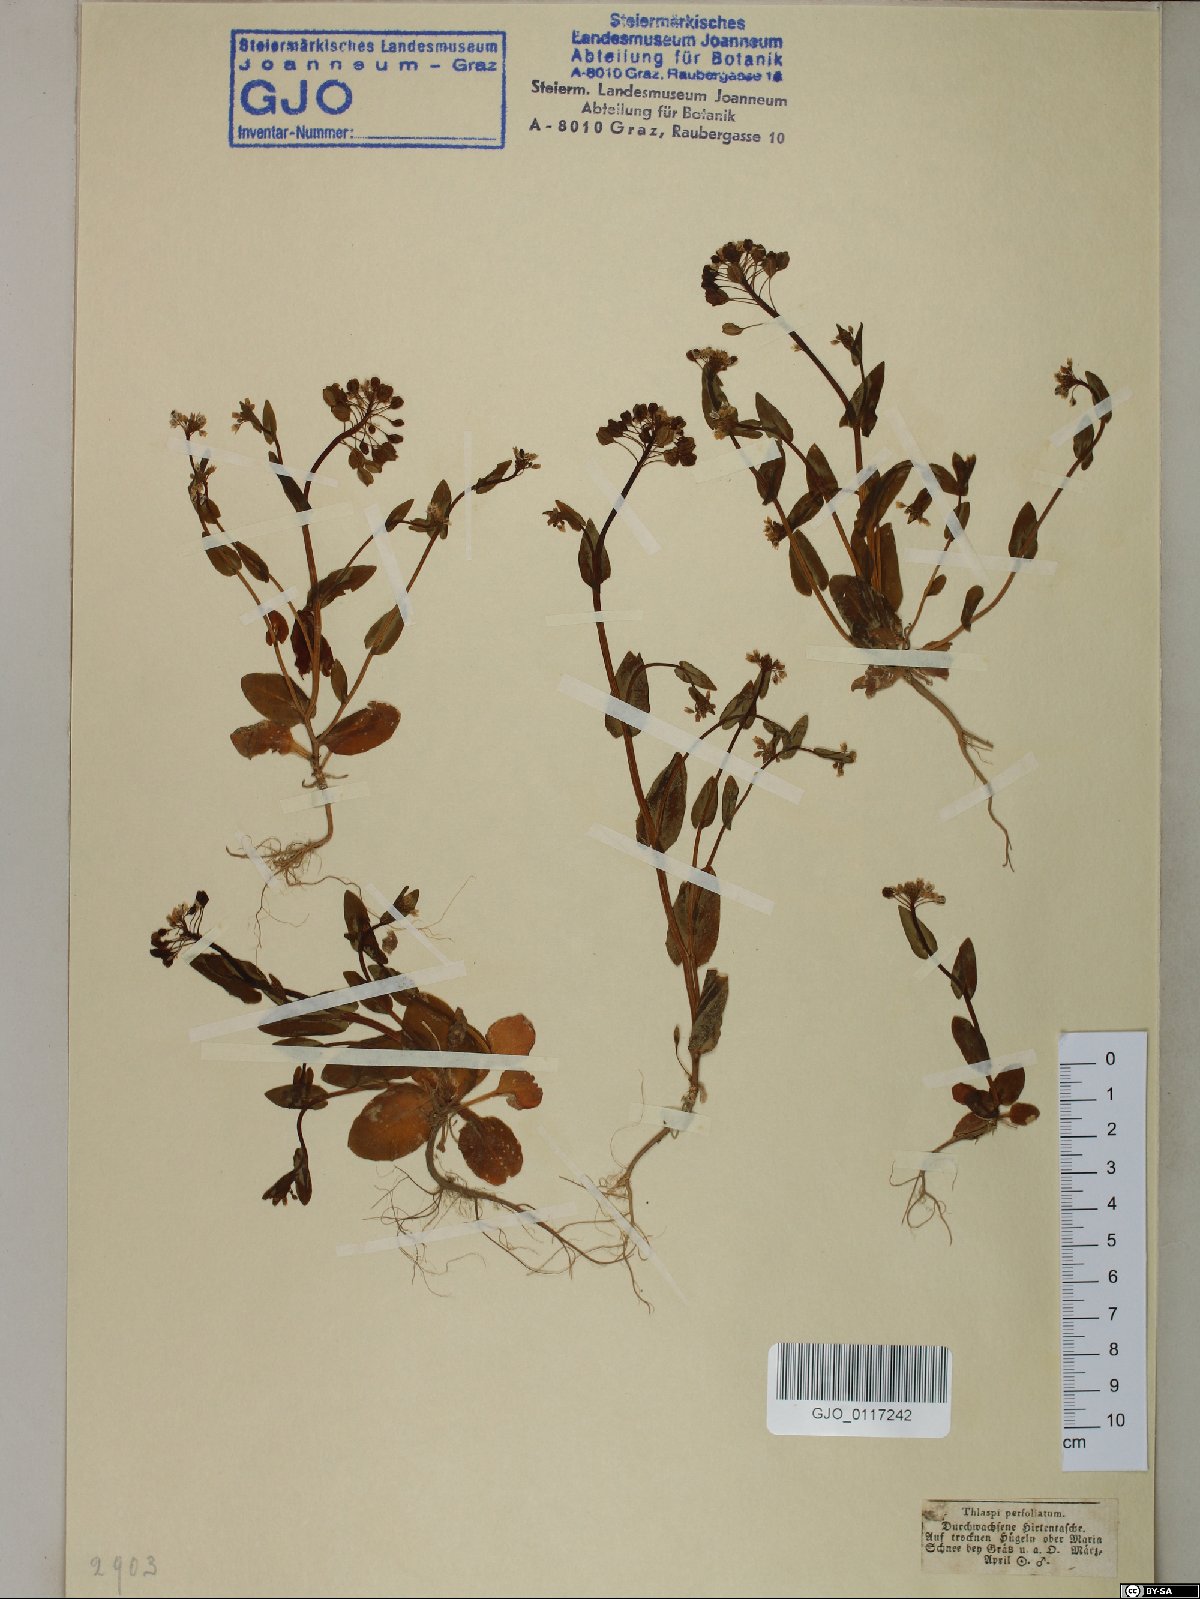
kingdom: Plantae
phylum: Tracheophyta
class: Magnoliopsida
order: Brassicales
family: Brassicaceae
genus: Noccaea
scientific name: Noccaea perfoliata
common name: Perfoliate pennycress
